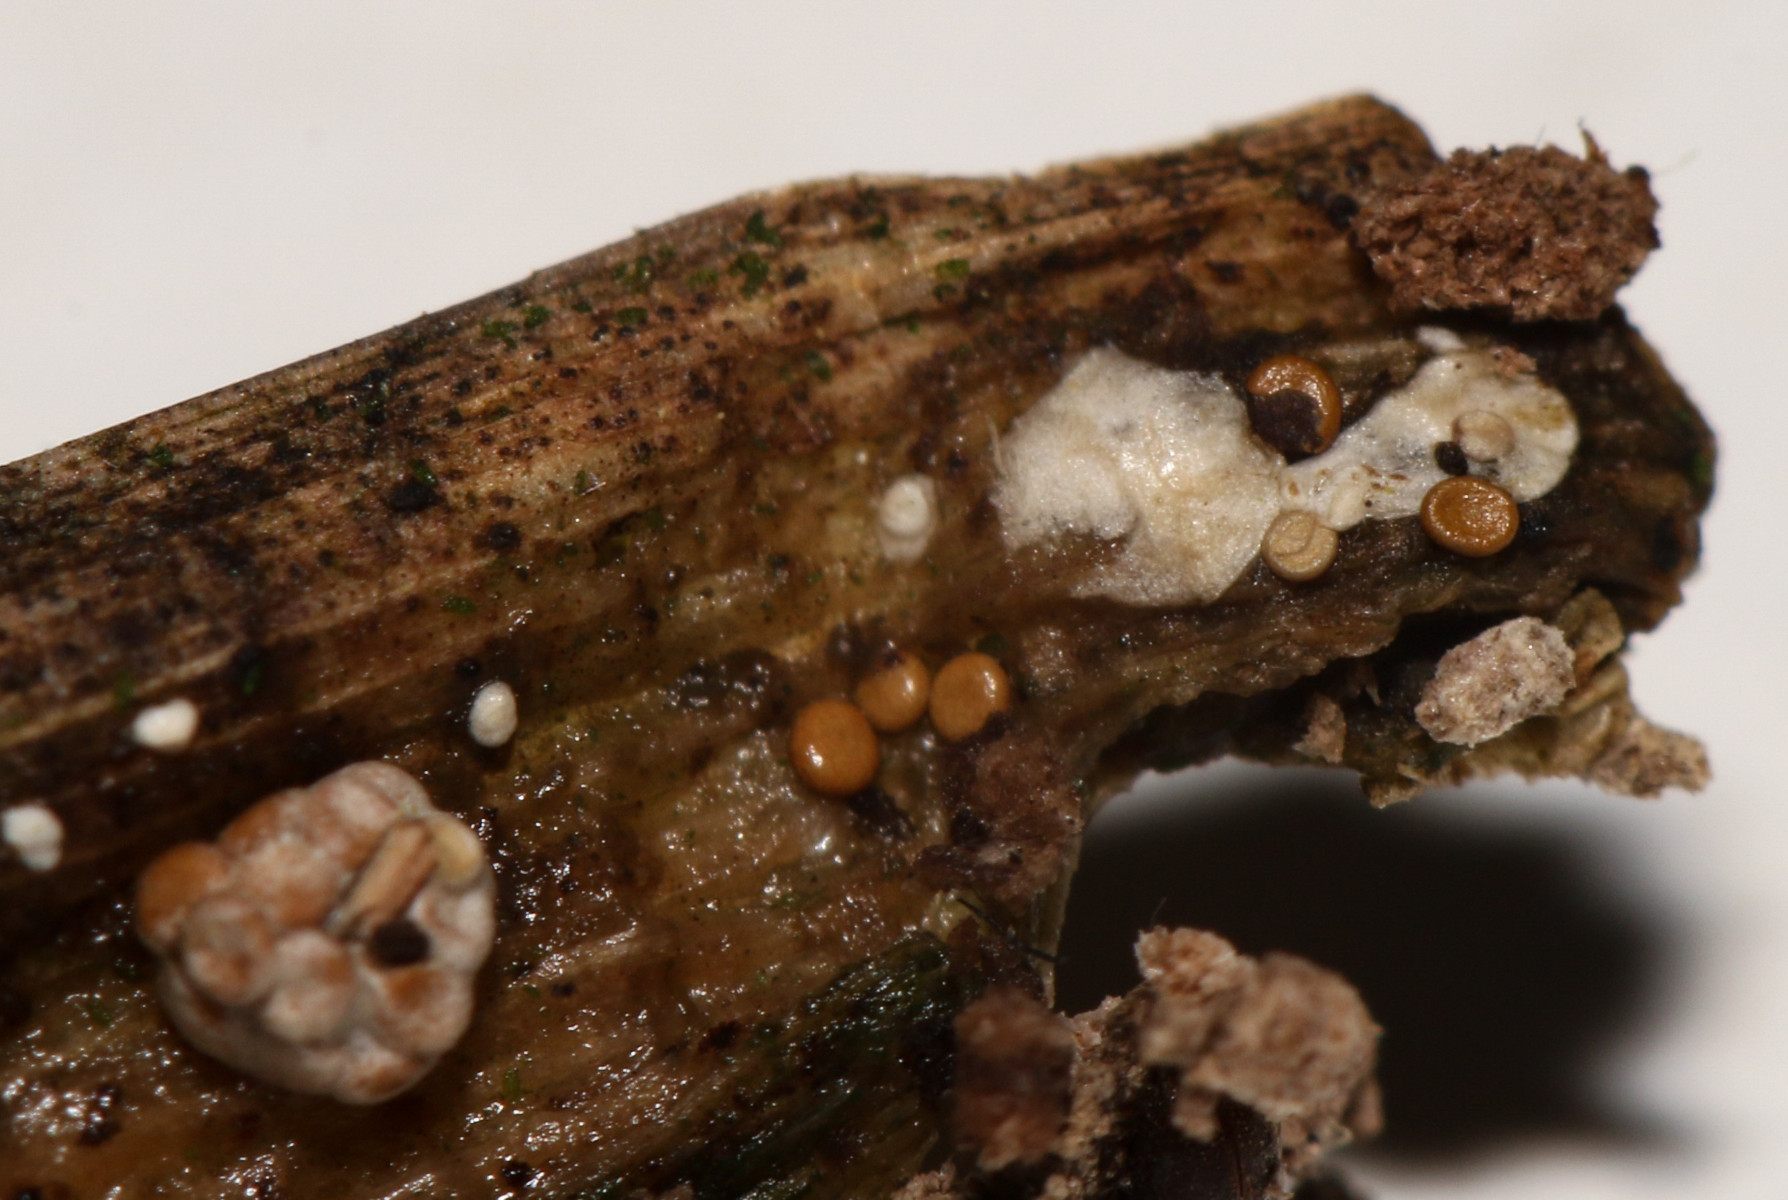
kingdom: Fungi
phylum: Basidiomycota
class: Agaricomycetes
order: Agaricales
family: Agaricaceae
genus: Mycocalia
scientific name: Mycocalia denudata
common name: liden linsepude
